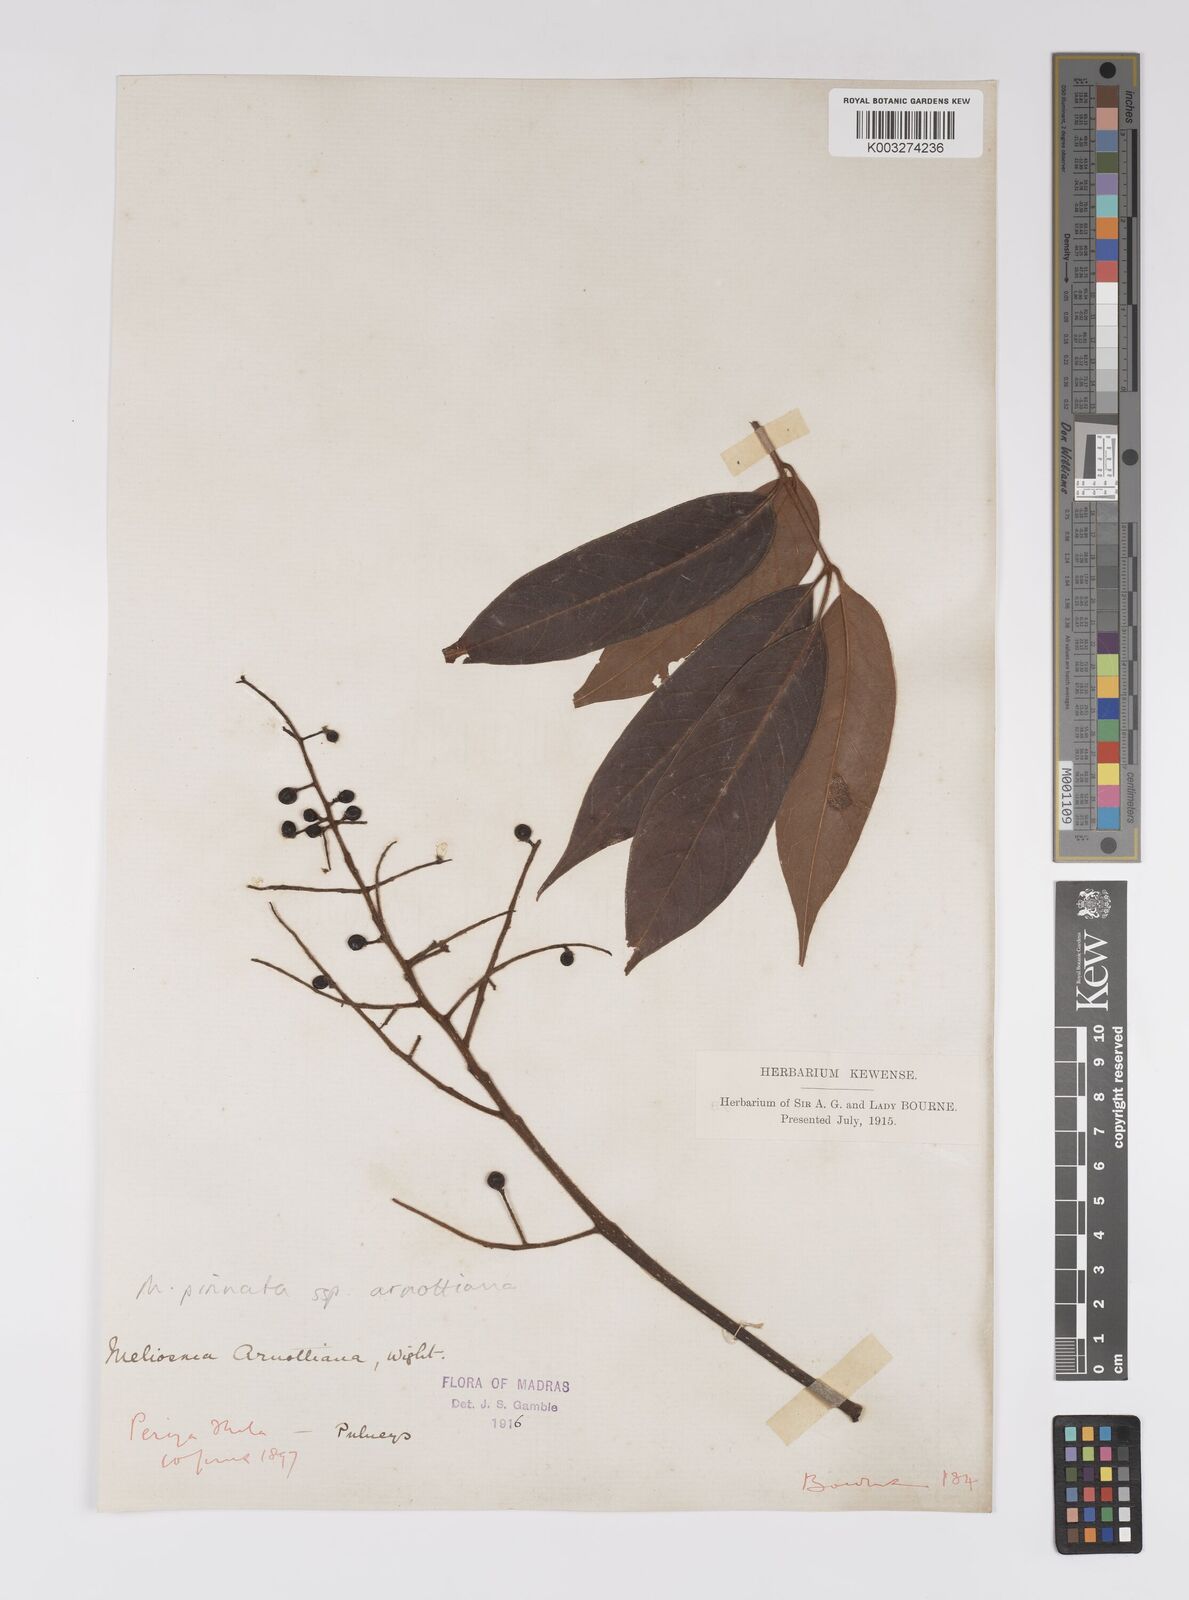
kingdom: Plantae
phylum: Tracheophyta
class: Magnoliopsida
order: Proteales
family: Sabiaceae
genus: Meliosma
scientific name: Meliosma rhoifolia
